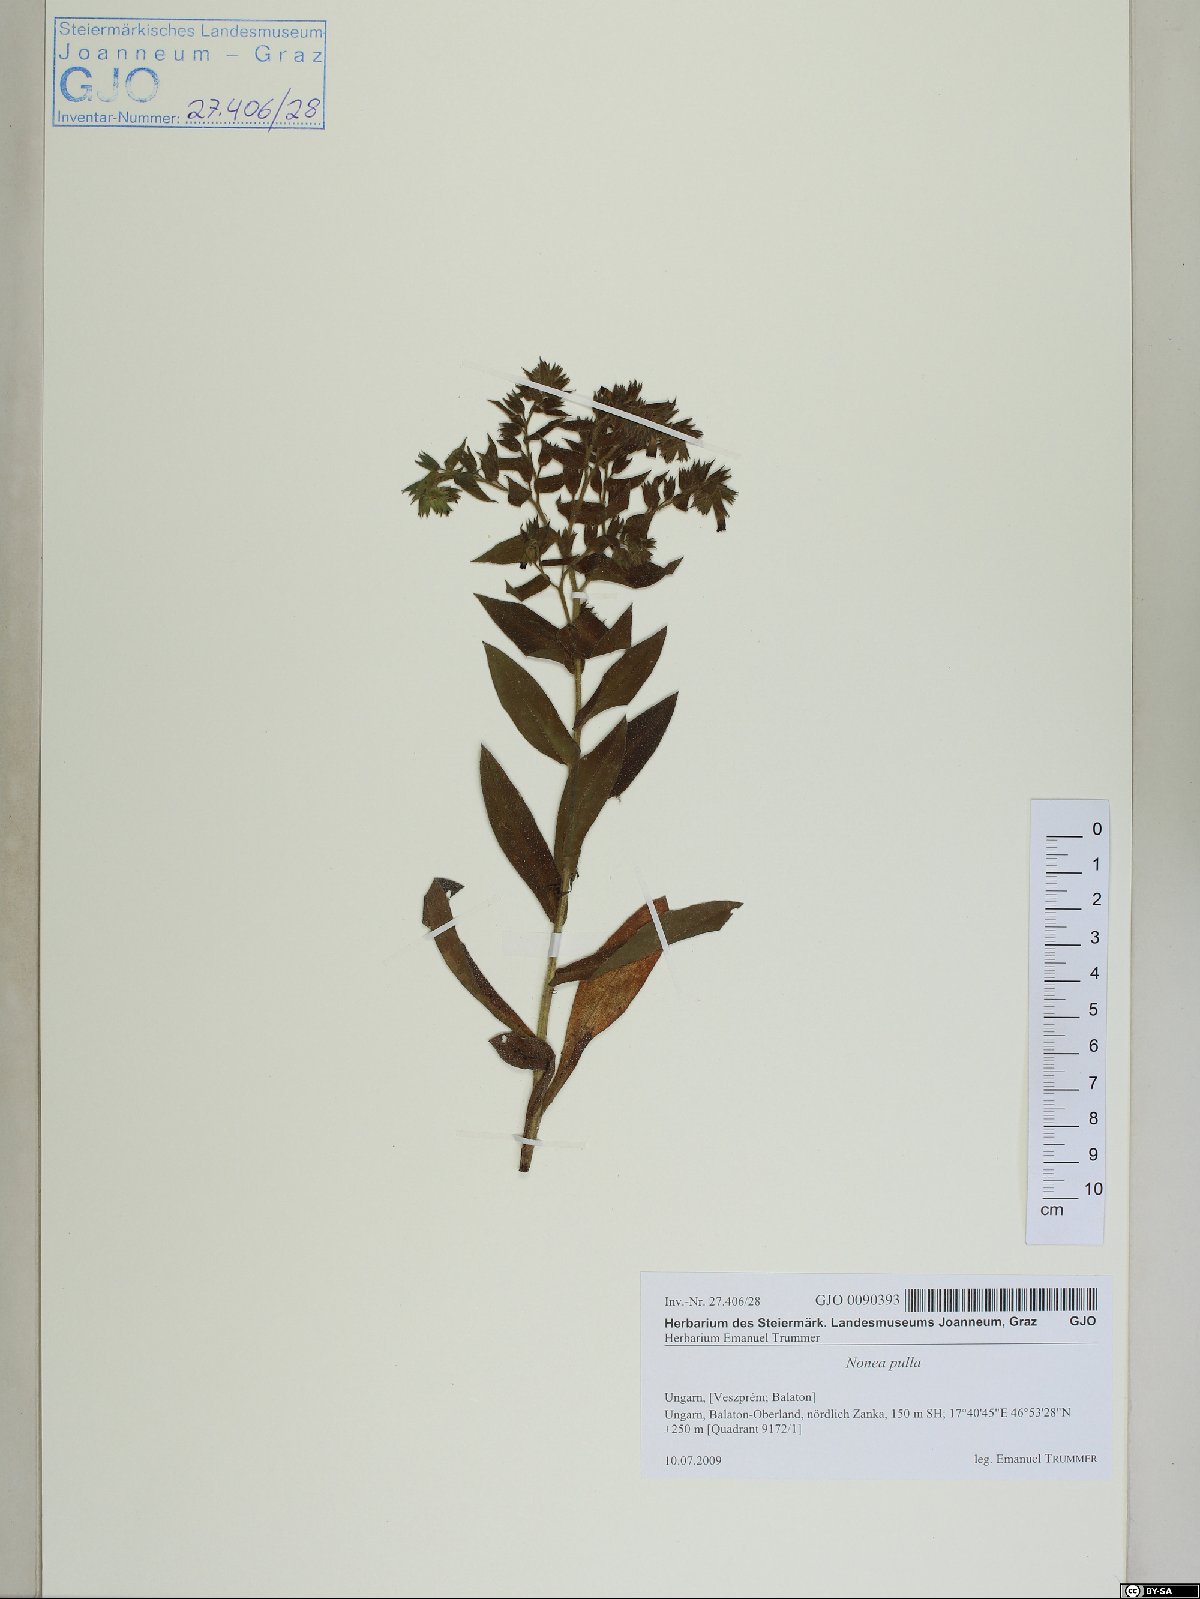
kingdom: Plantae
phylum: Tracheophyta
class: Magnoliopsida
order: Boraginales
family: Boraginaceae
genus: Nonea
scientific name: Nonea pulla
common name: Brown nonea
